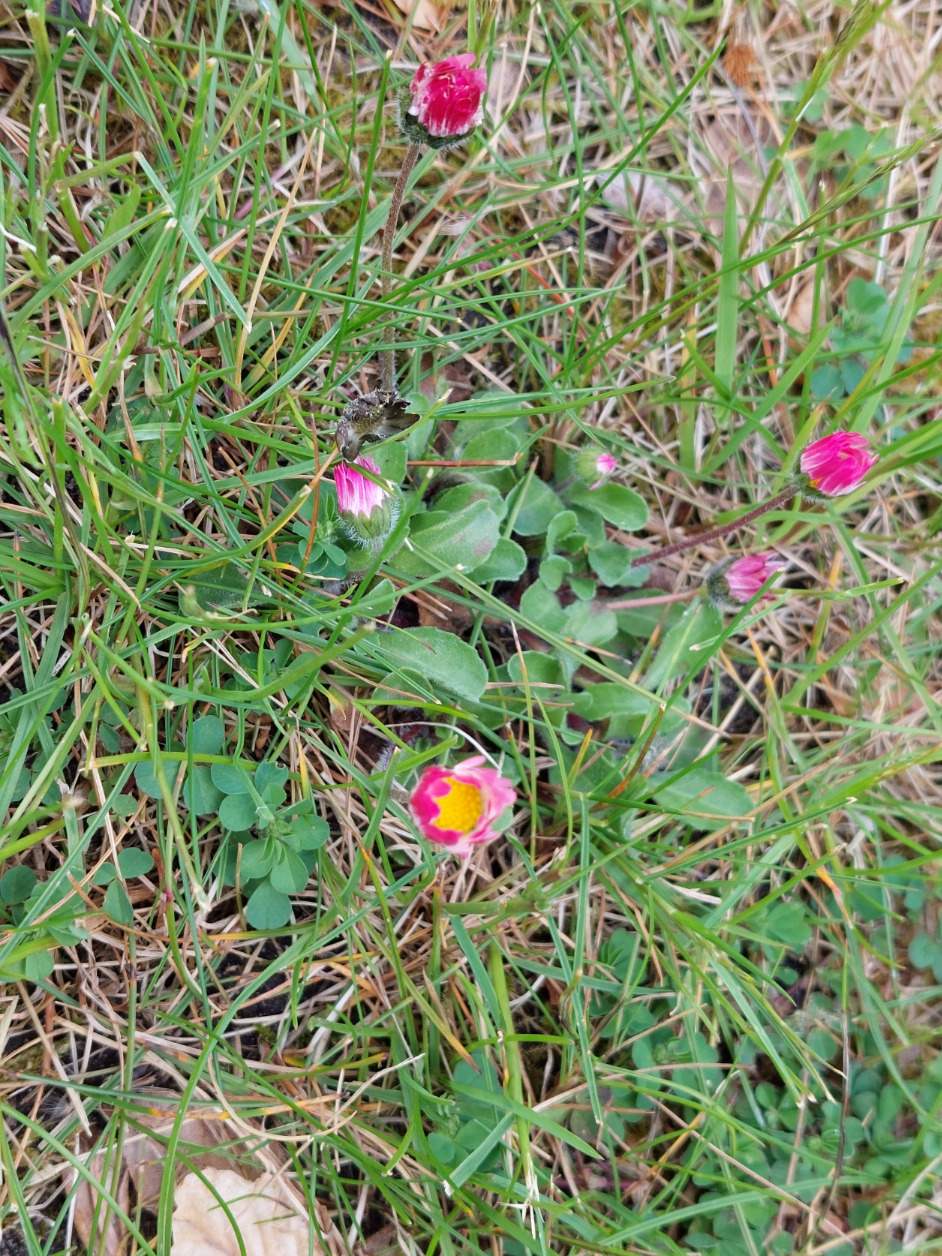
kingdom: Plantae
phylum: Tracheophyta
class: Magnoliopsida
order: Asterales
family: Asteraceae
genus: Bellis
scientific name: Bellis perennis
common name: Tusindfryd
